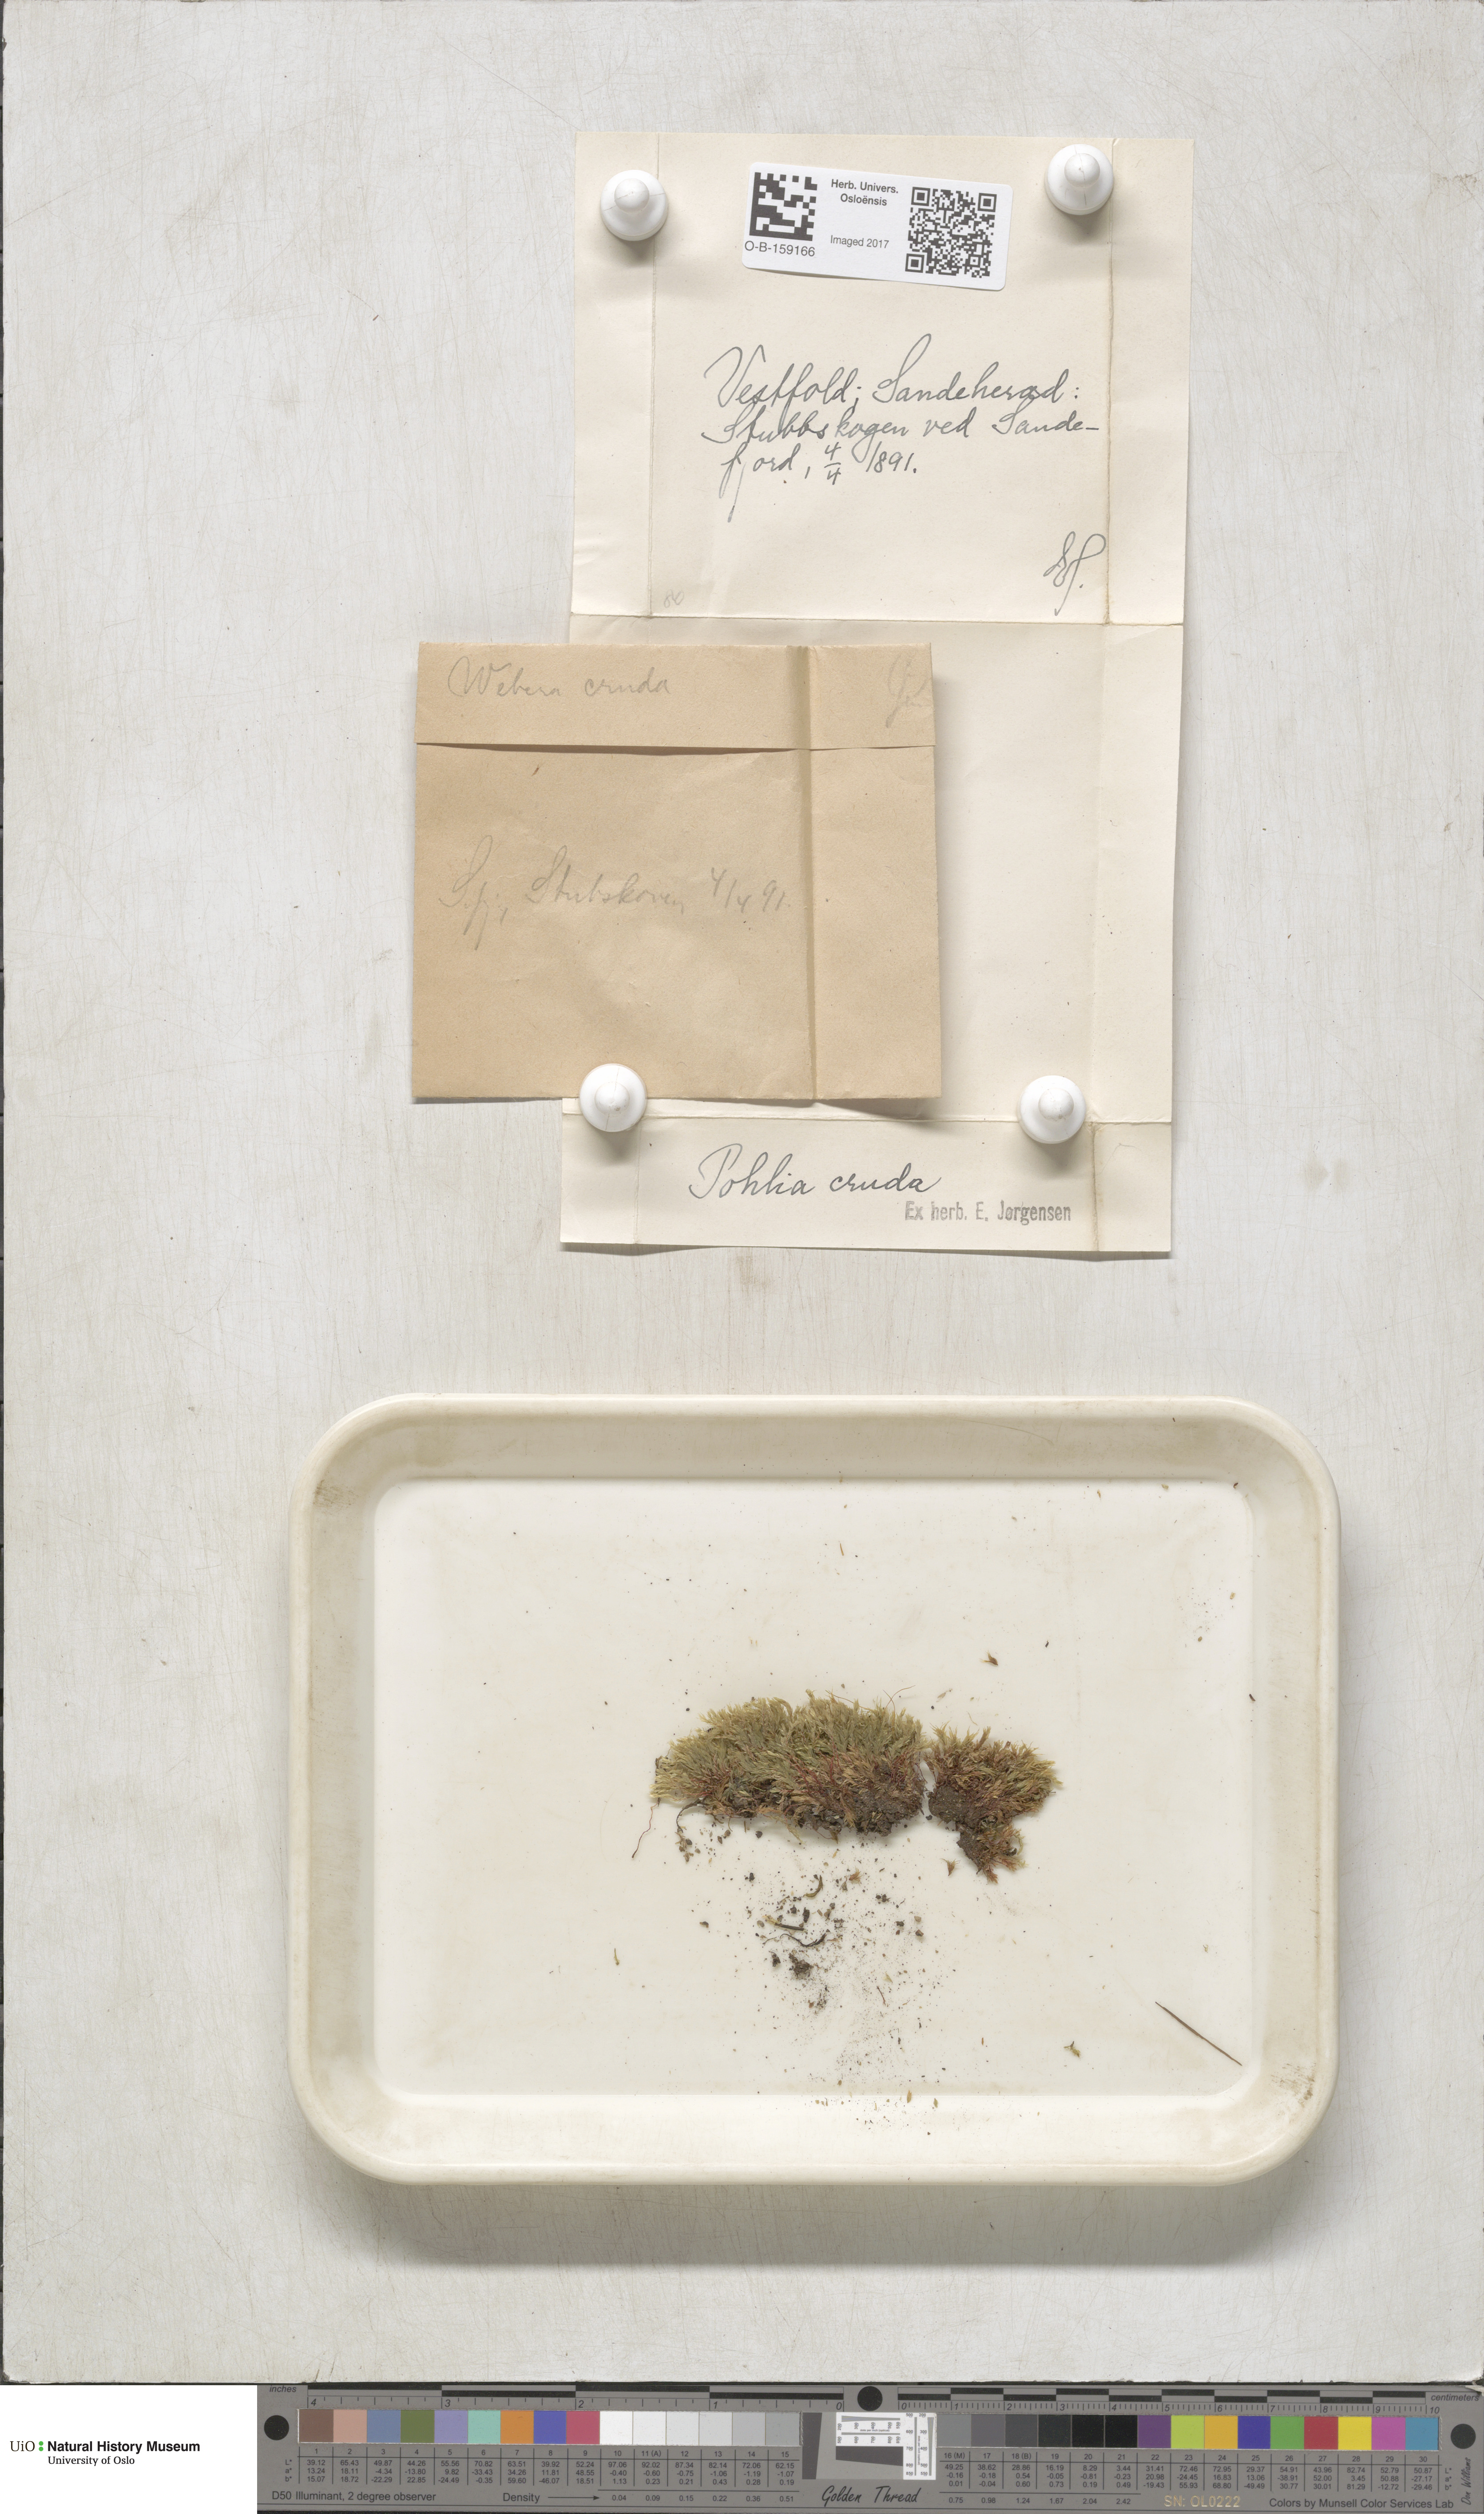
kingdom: Plantae
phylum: Bryophyta
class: Bryopsida
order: Bryales
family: Mniaceae
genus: Pohlia
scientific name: Pohlia cruda
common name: Opal nodding moss
